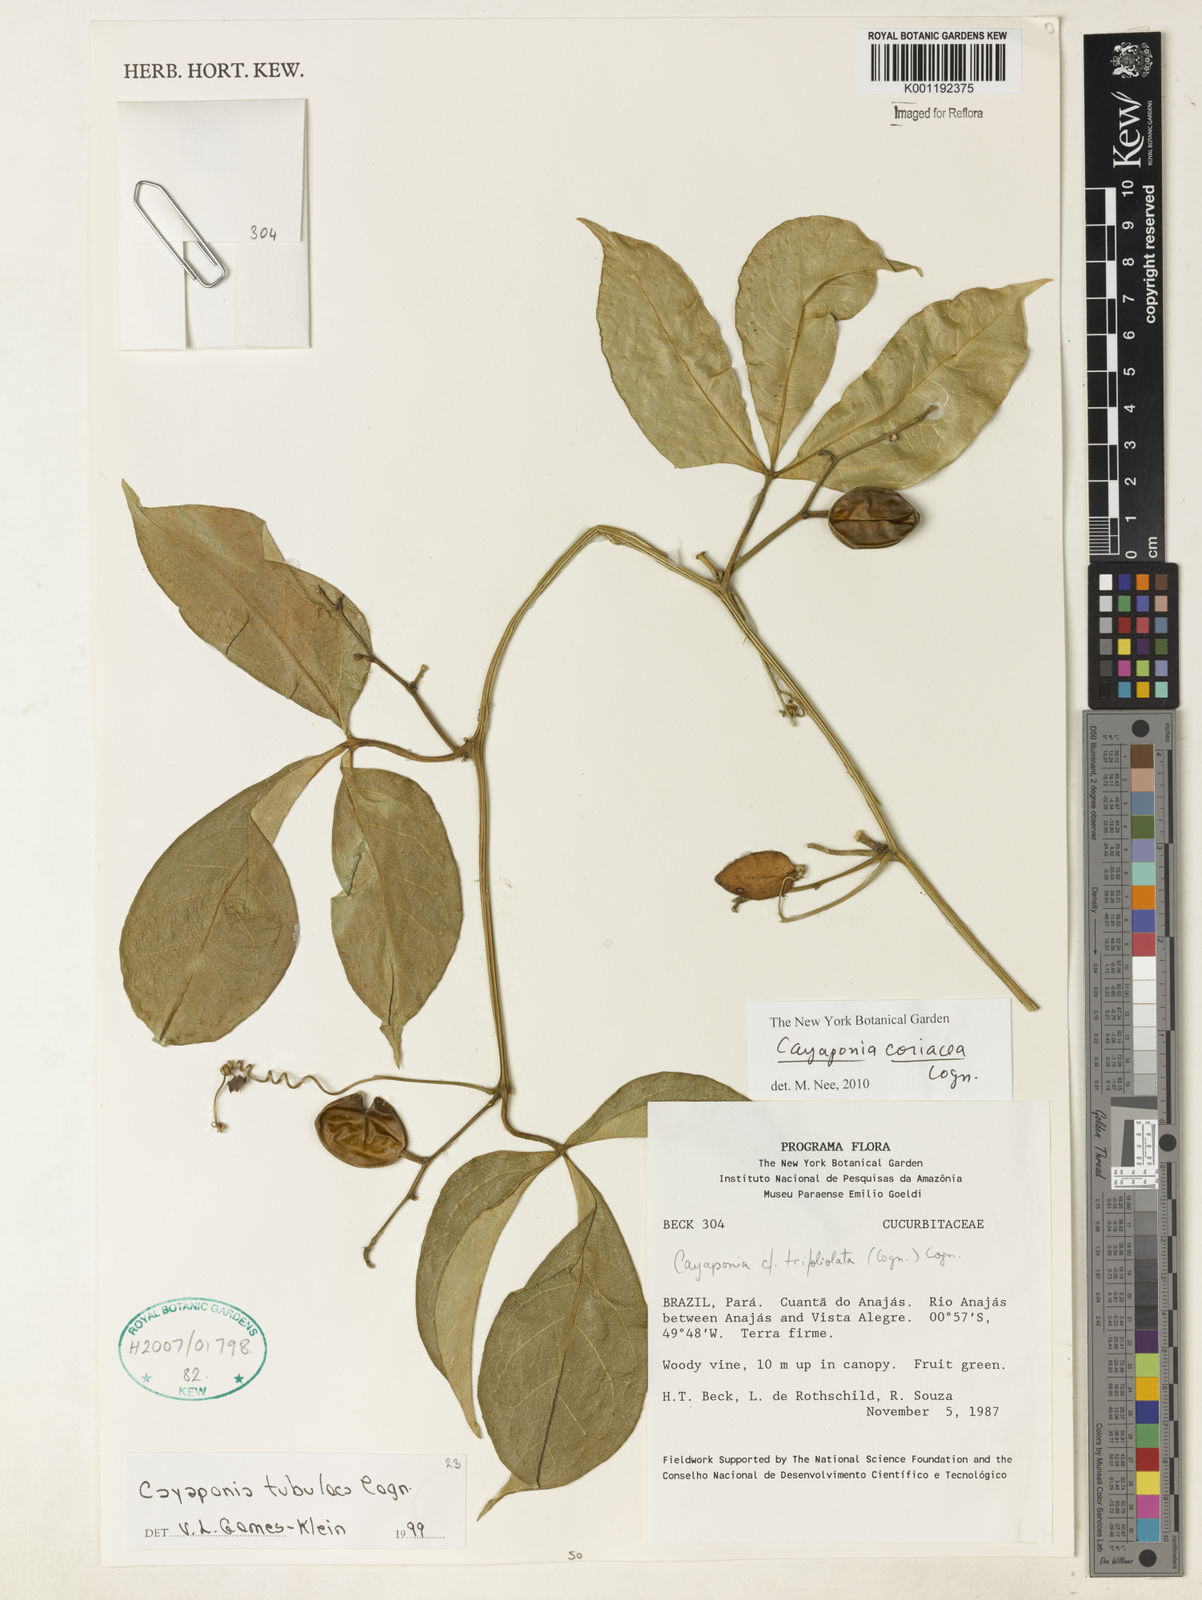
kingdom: Plantae
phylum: Tracheophyta
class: Magnoliopsida
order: Cucurbitales
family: Cucurbitaceae
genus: Cayaponia
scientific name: Cayaponia coriacea
